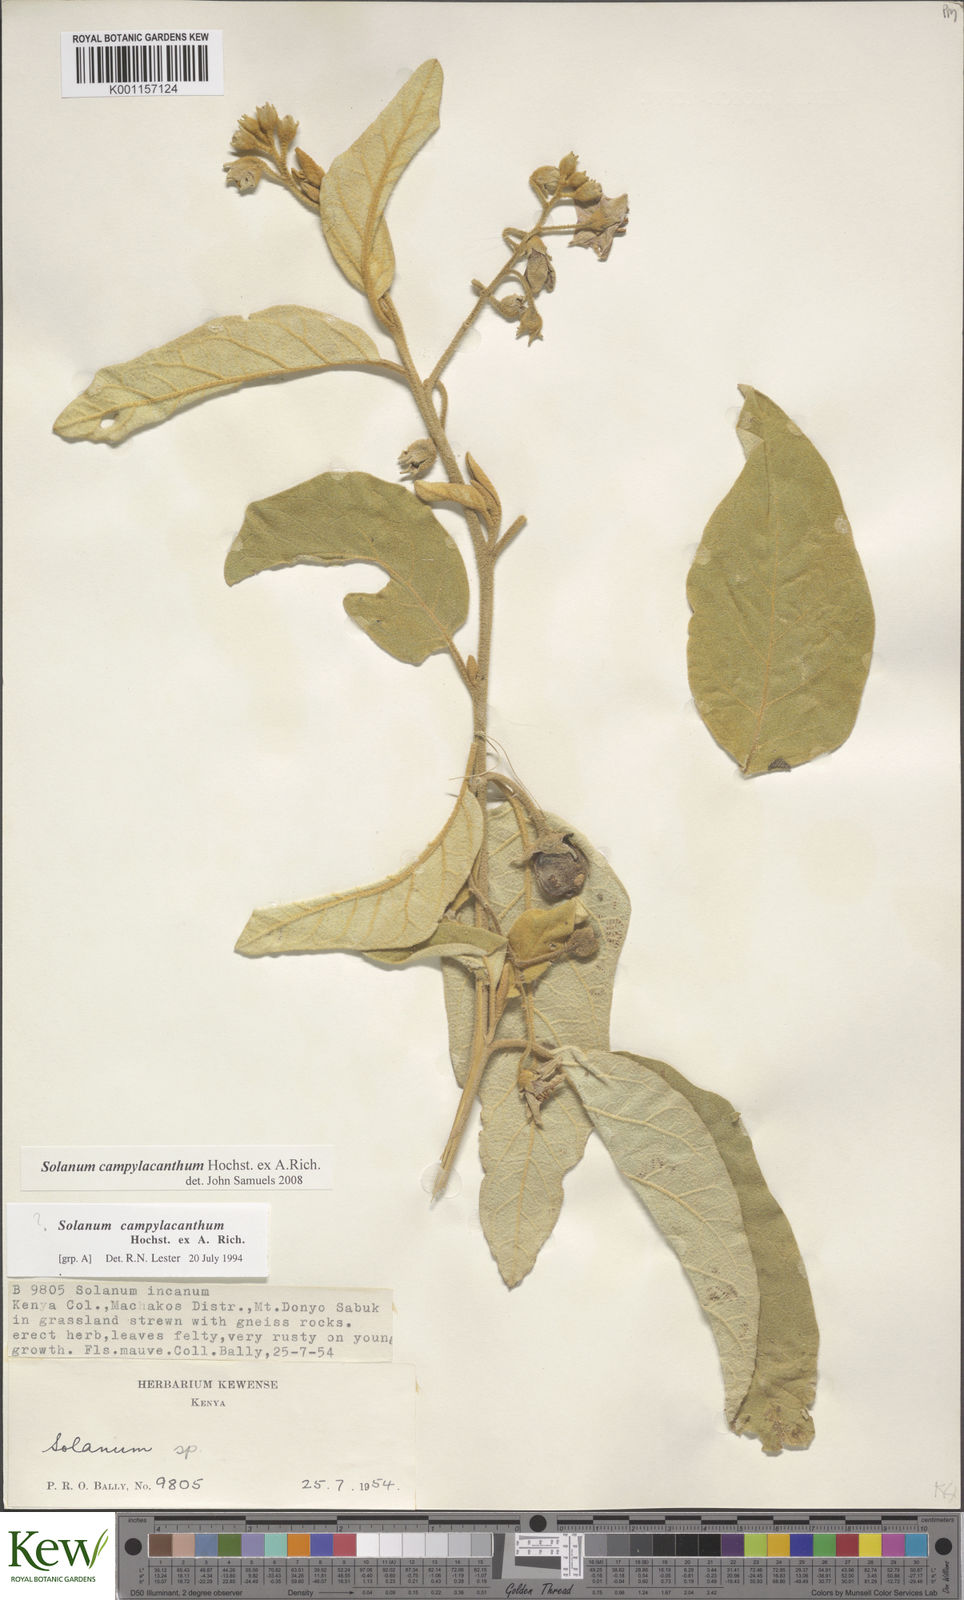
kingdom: Plantae
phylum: Tracheophyta
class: Magnoliopsida
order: Solanales
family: Solanaceae
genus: Solanum
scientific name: Solanum campylacanthum
